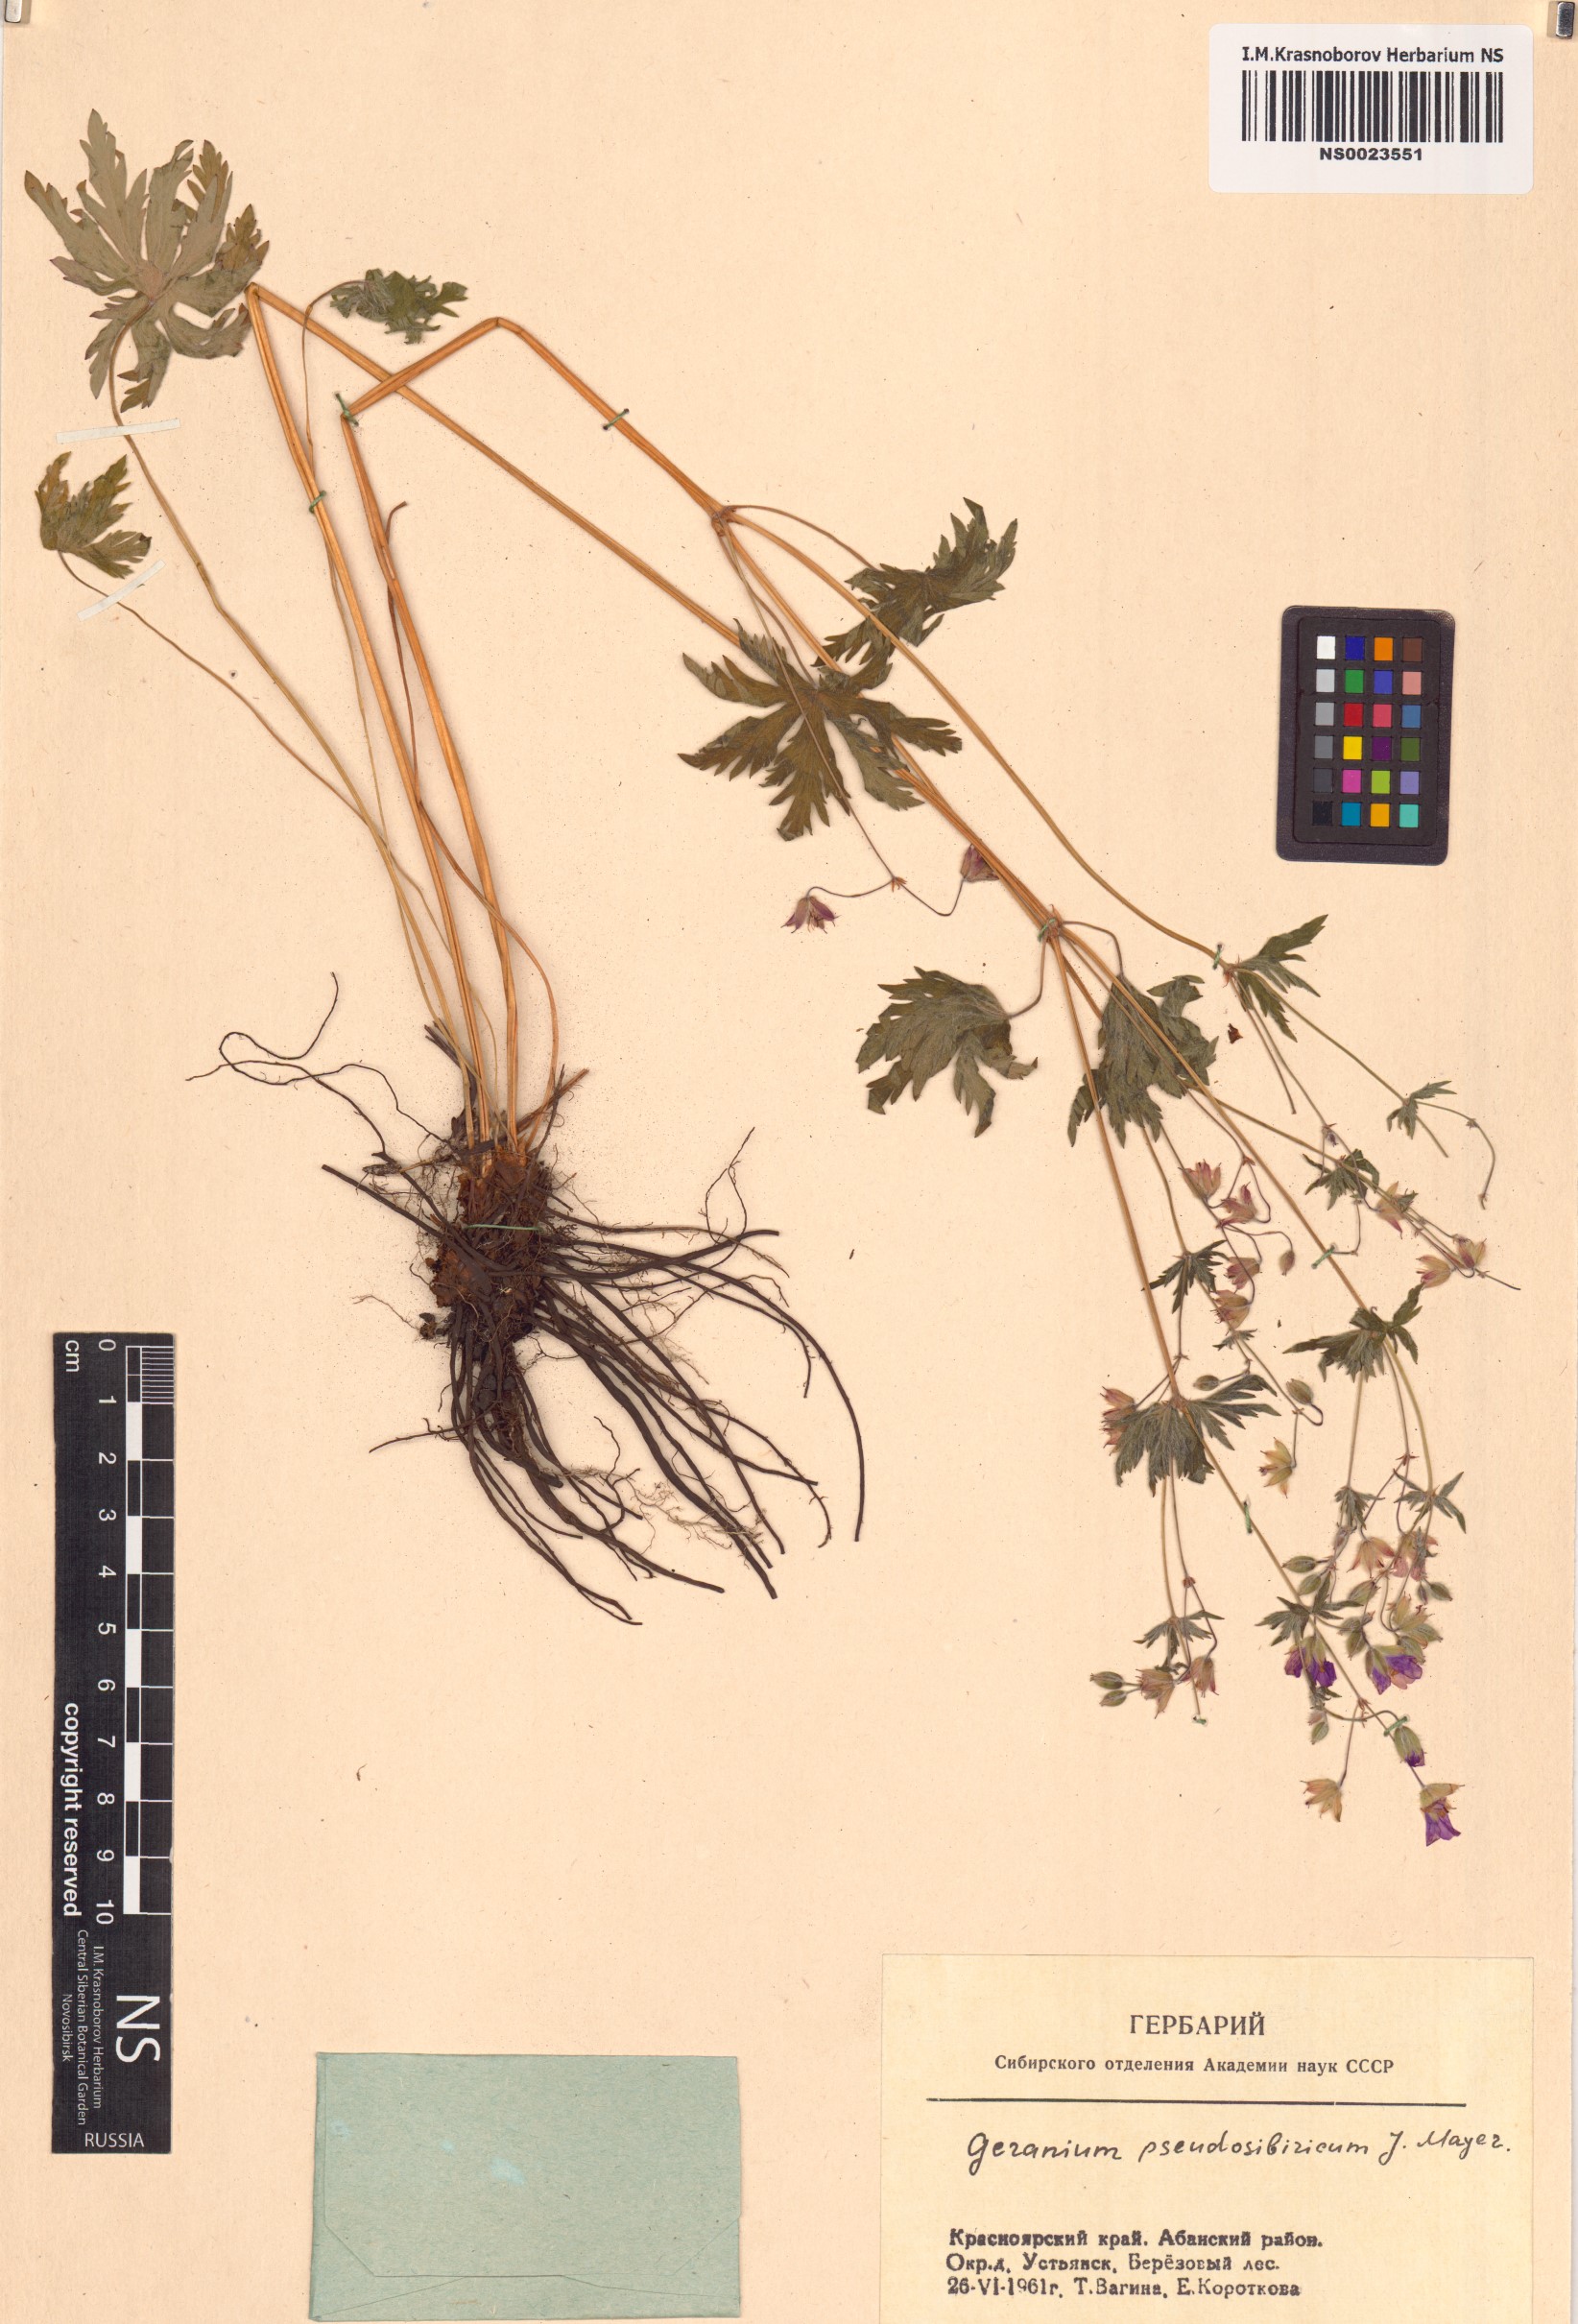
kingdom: Plantae
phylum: Tracheophyta
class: Magnoliopsida
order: Geraniales
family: Geraniaceae
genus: Geranium
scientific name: Geranium pseudosibiricum
